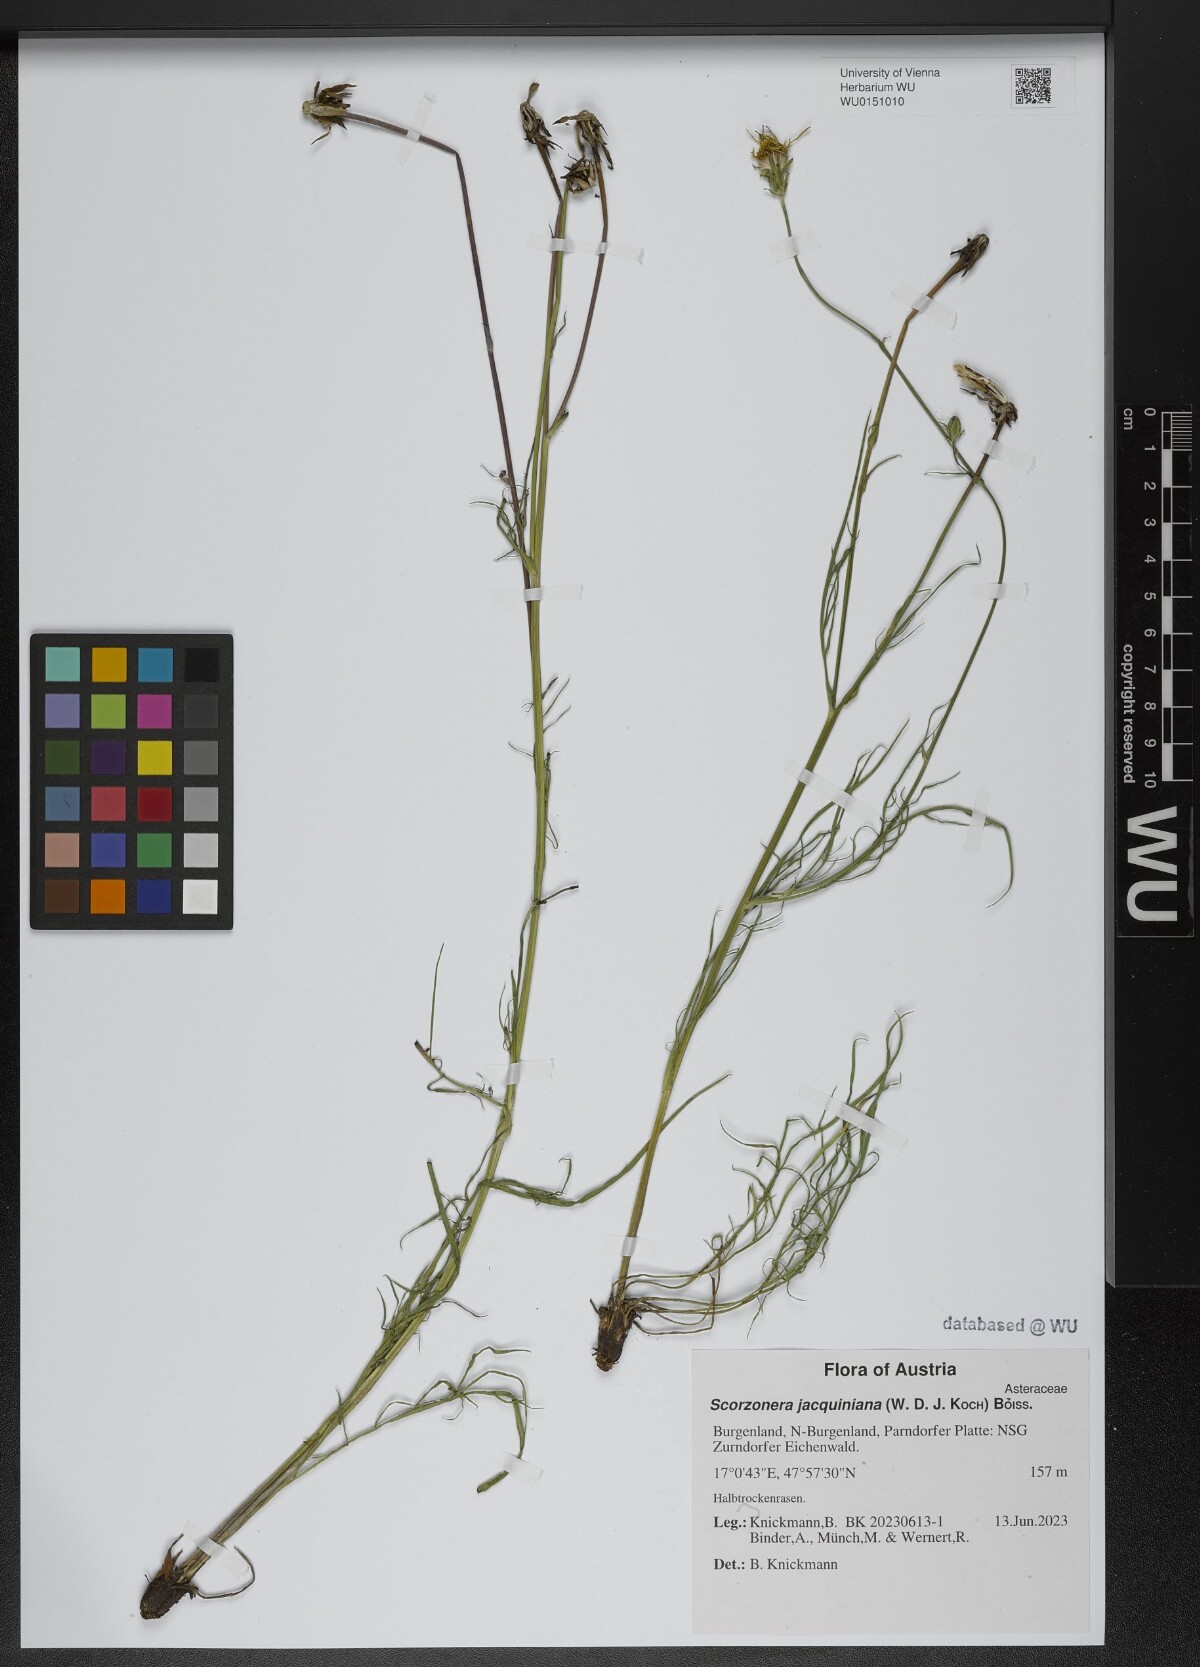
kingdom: Plantae
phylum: Tracheophyta
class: Magnoliopsida
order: Asterales
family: Asteraceae
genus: Scorzonera
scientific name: Scorzonera cana
